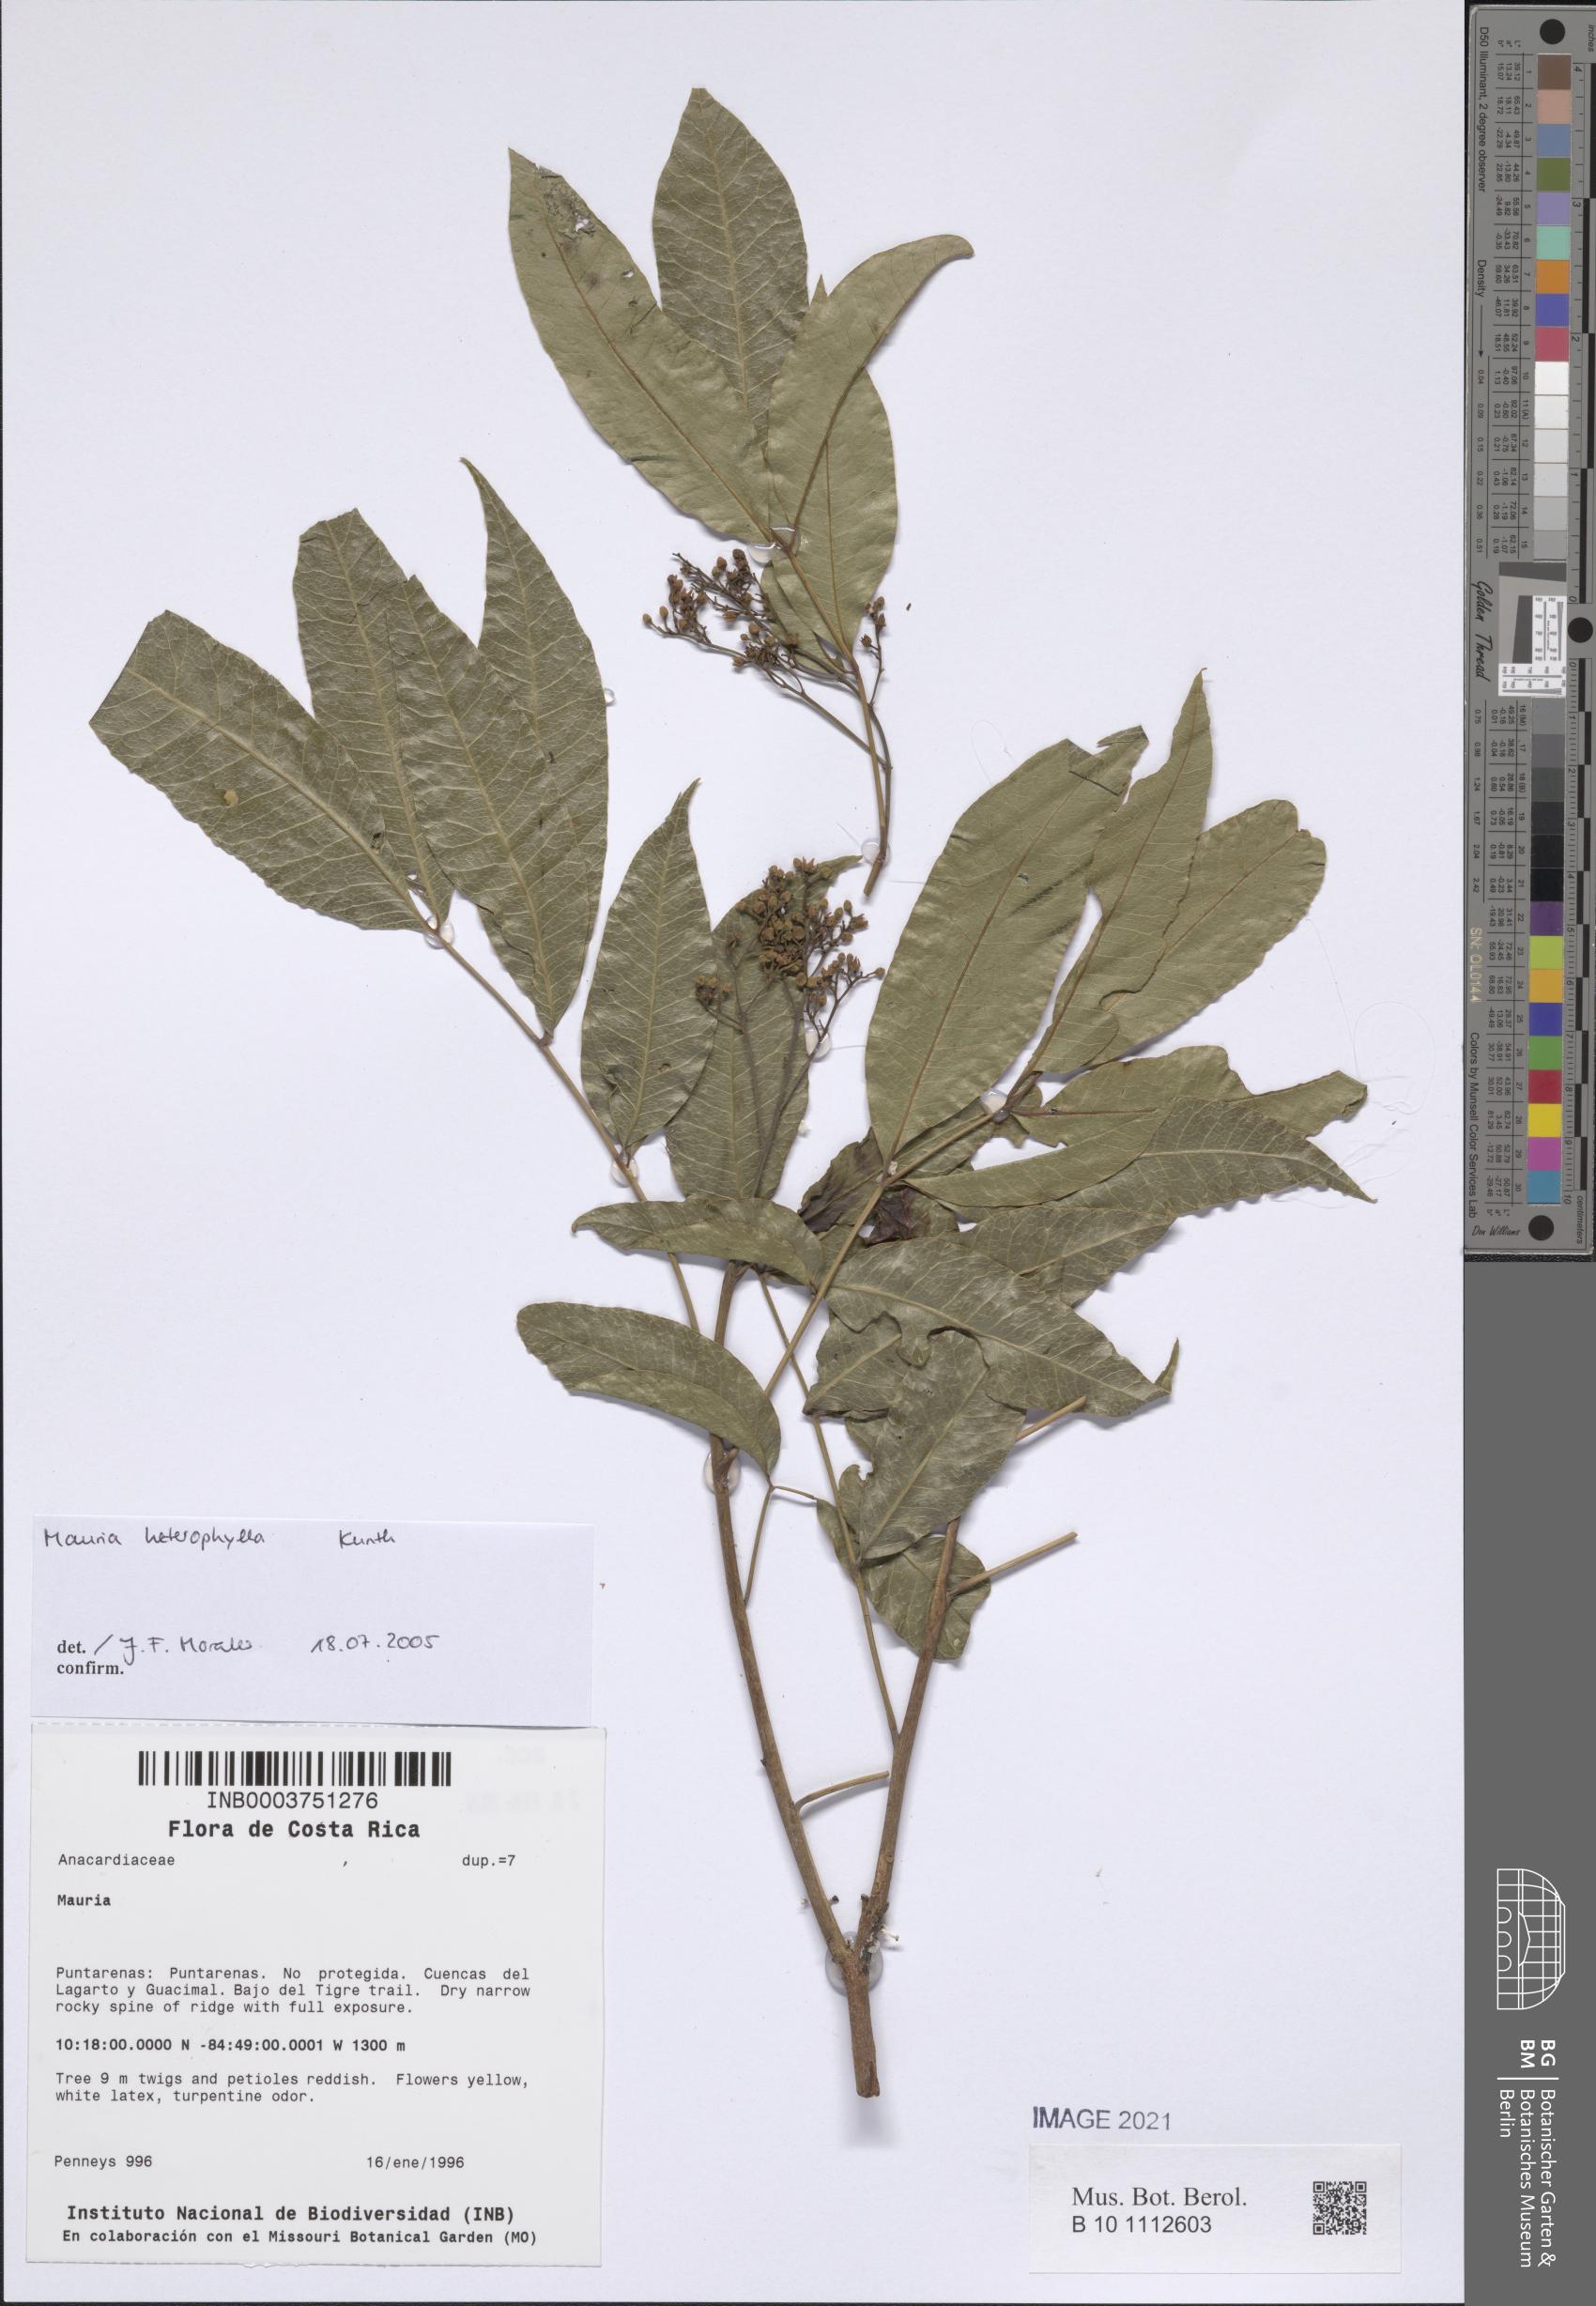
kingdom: Plantae
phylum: Tracheophyta
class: Magnoliopsida
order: Sapindales
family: Anacardiaceae
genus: Mauria
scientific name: Mauria heterophylla
